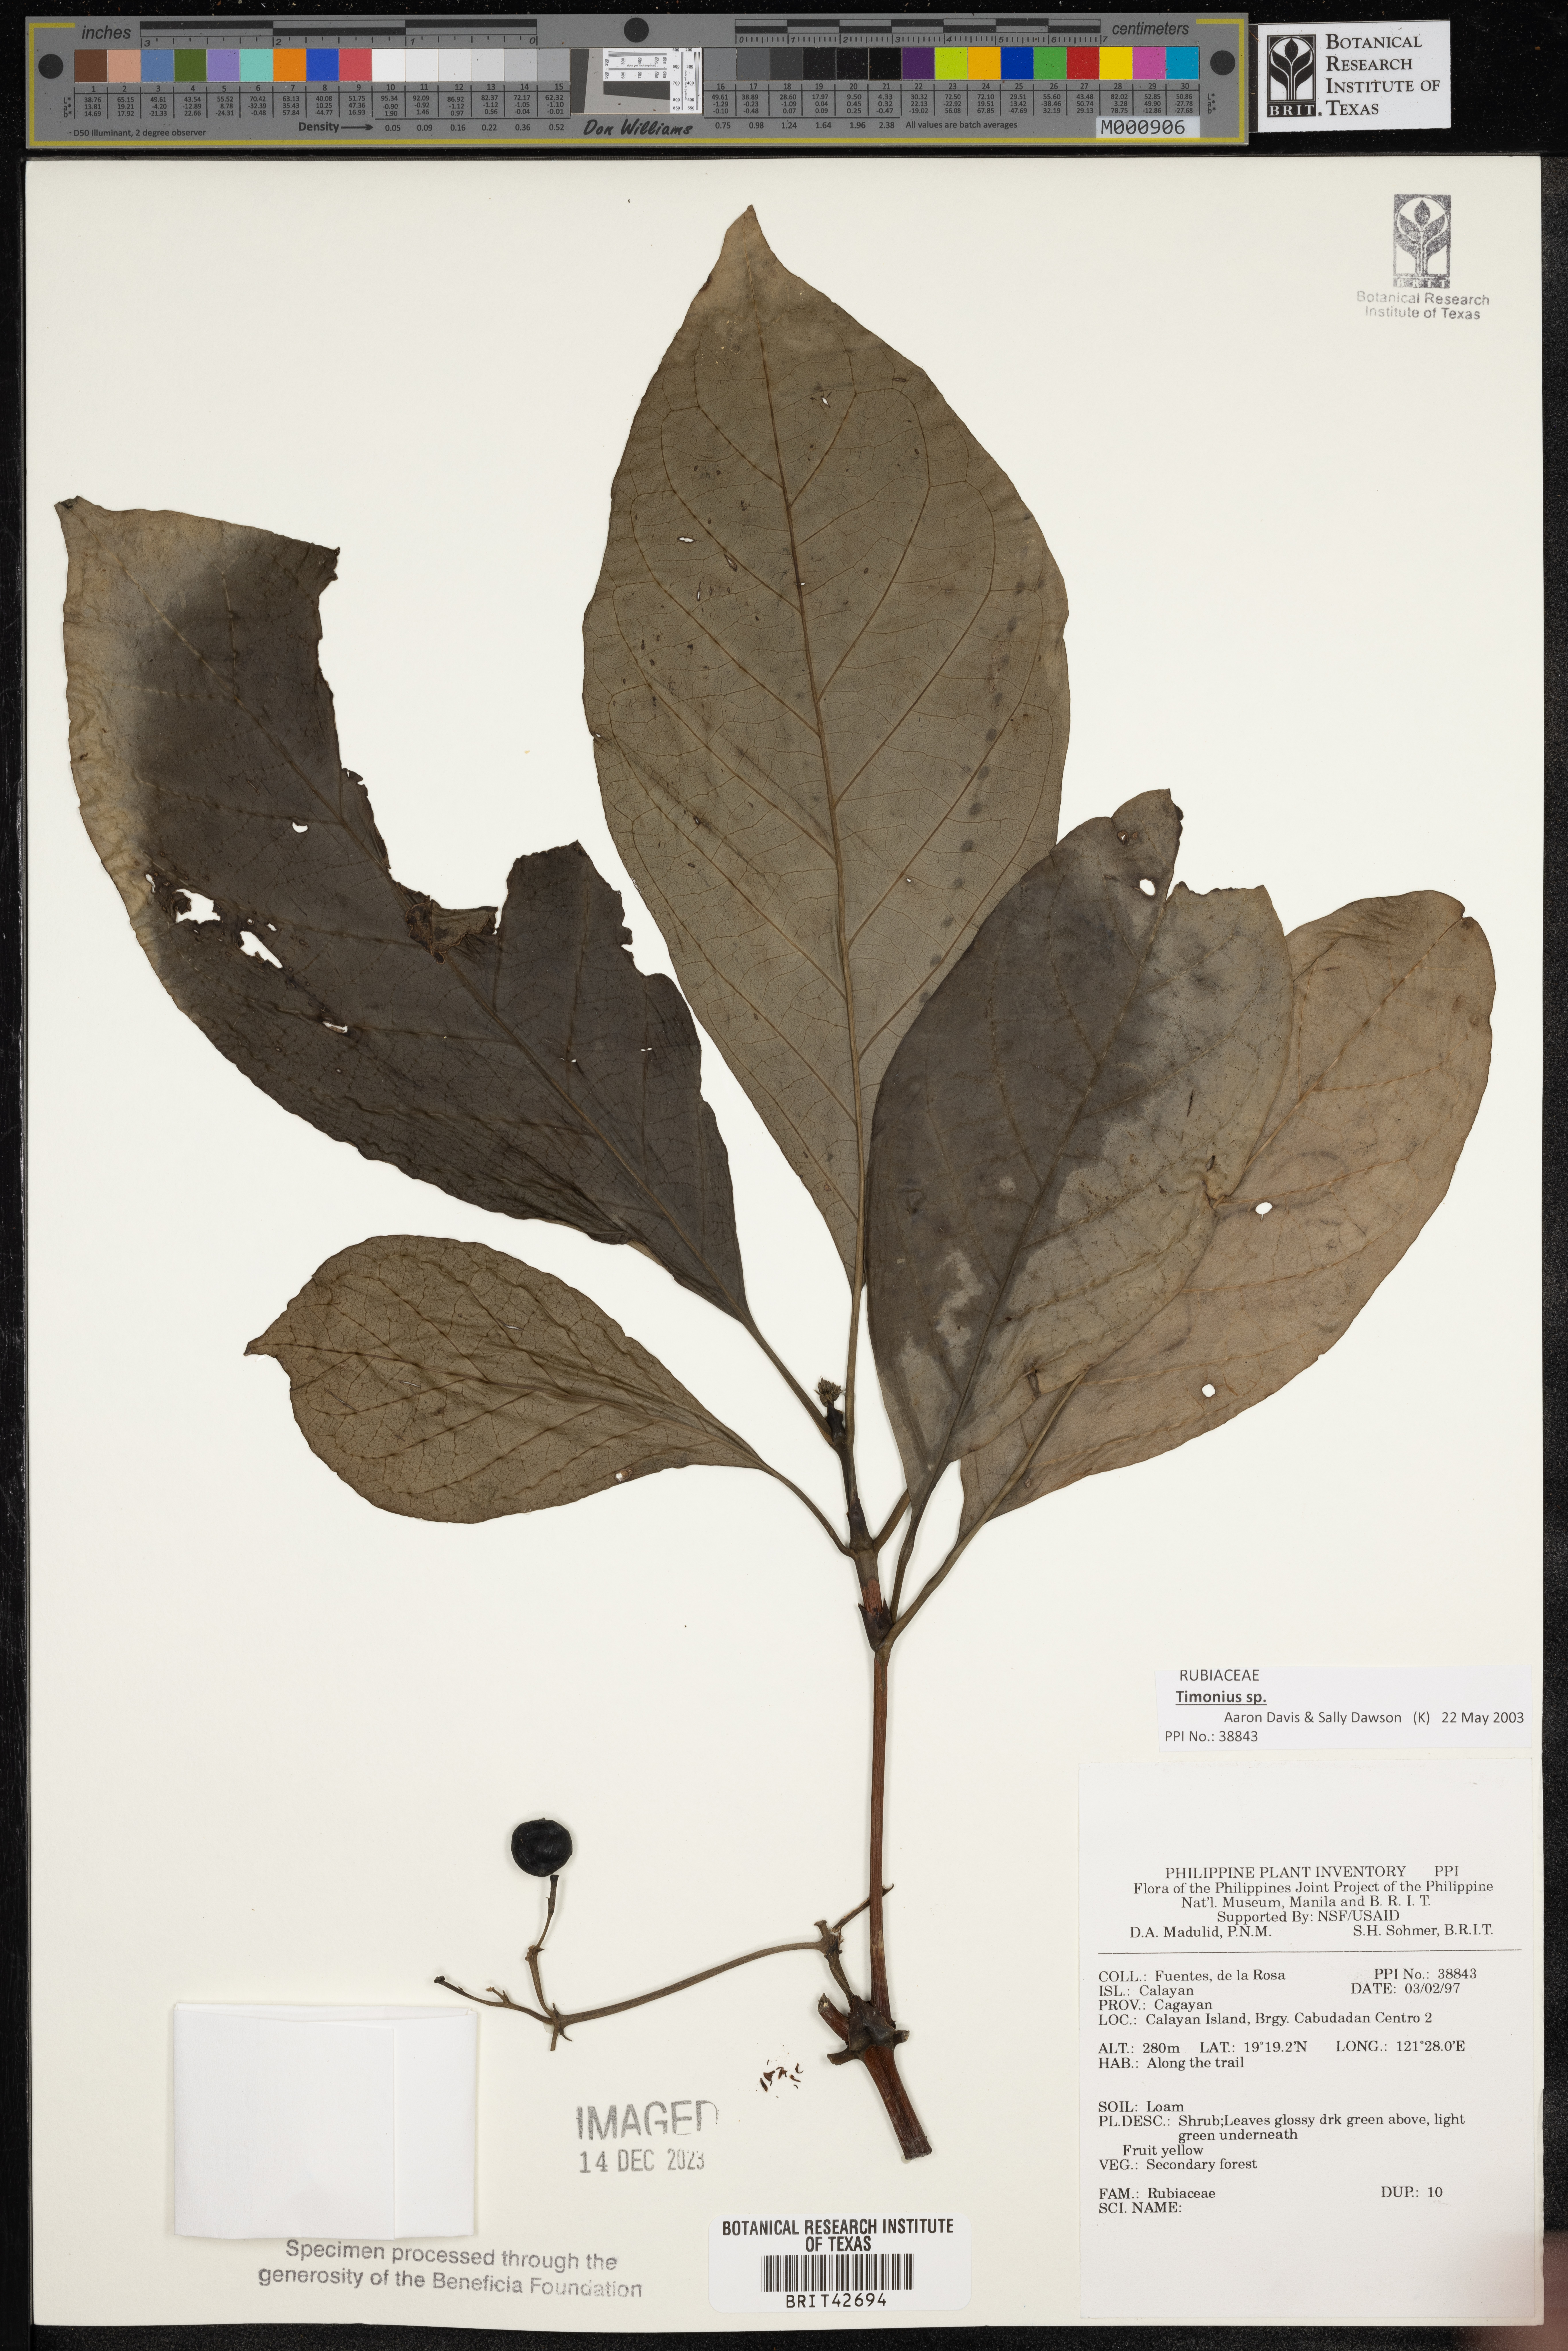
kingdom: Plantae
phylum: Tracheophyta
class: Magnoliopsida
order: Gentianales
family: Rubiaceae
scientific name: Rubiaceae
